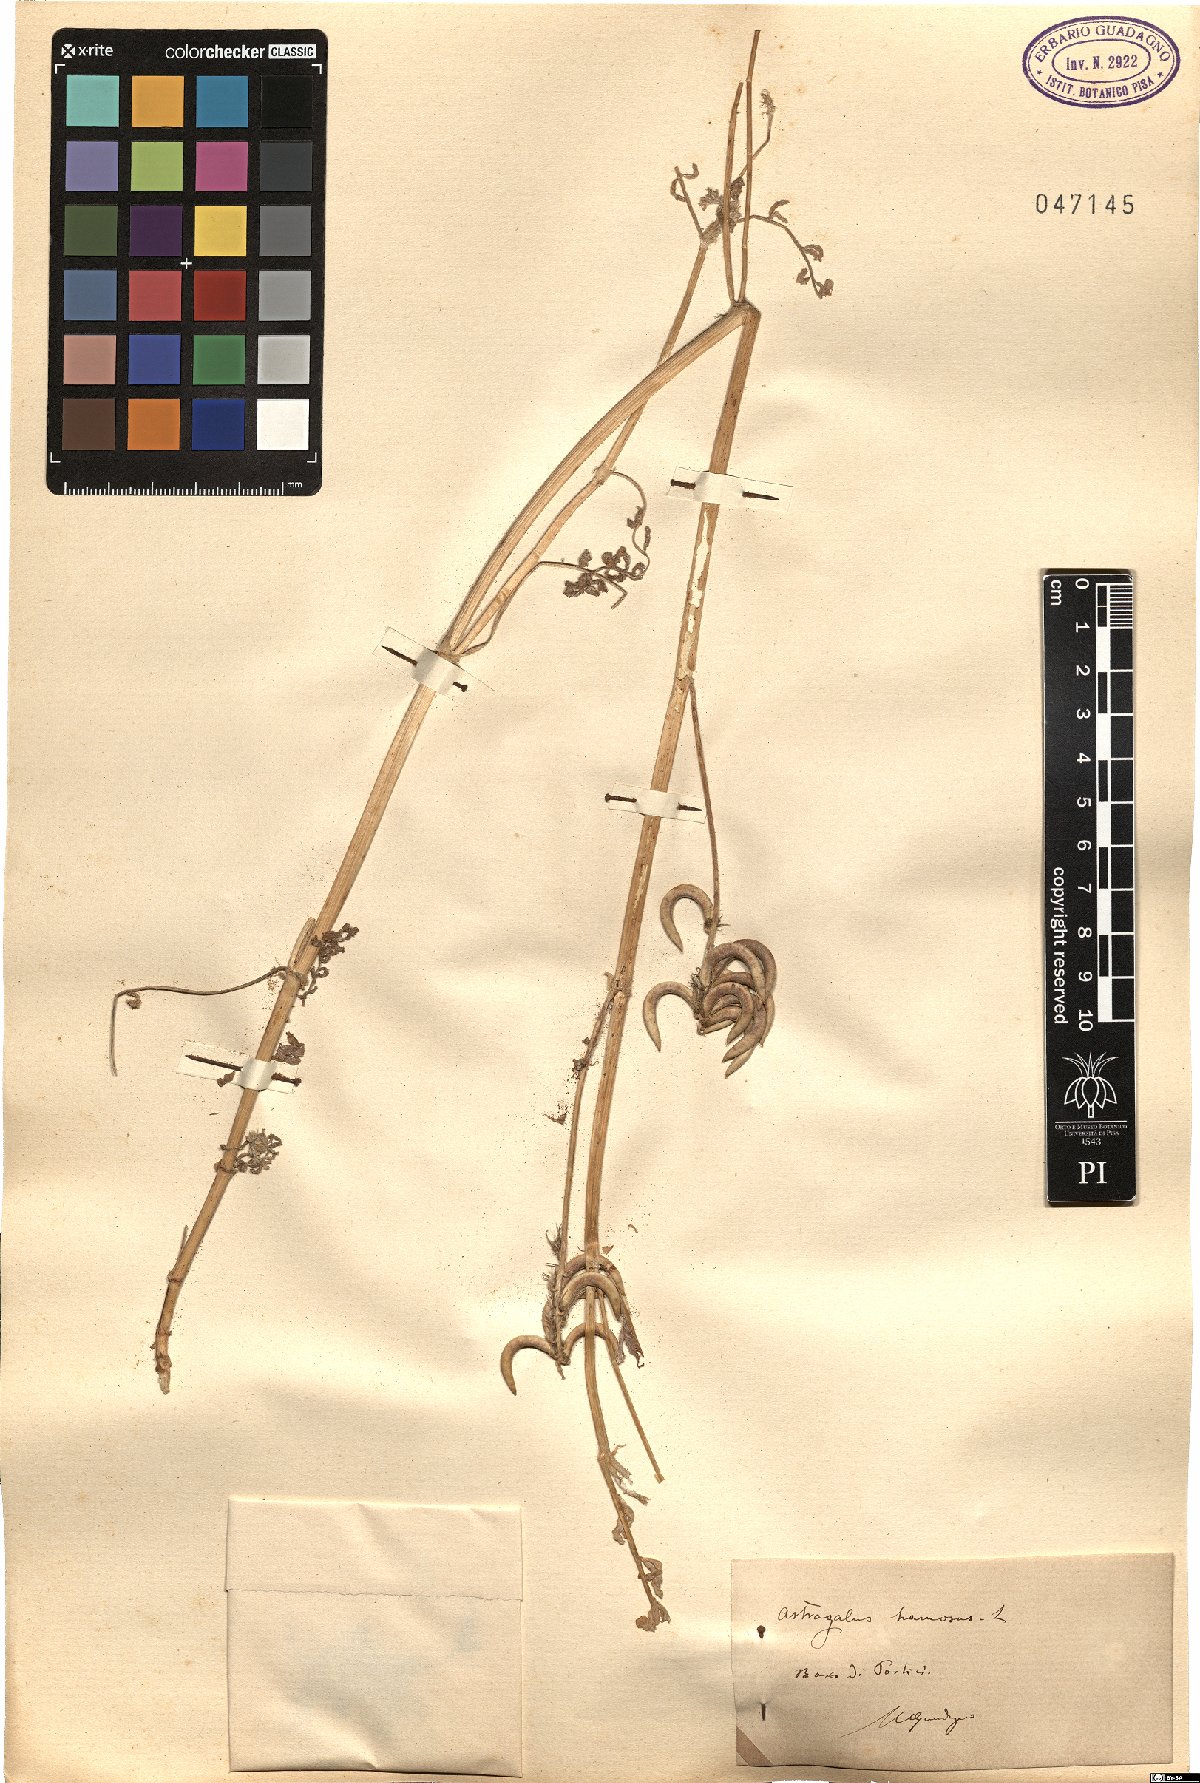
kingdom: Plantae
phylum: Tracheophyta
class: Magnoliopsida
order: Fabales
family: Fabaceae
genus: Astragalus
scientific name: Astragalus hamosus
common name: European milkvetch
